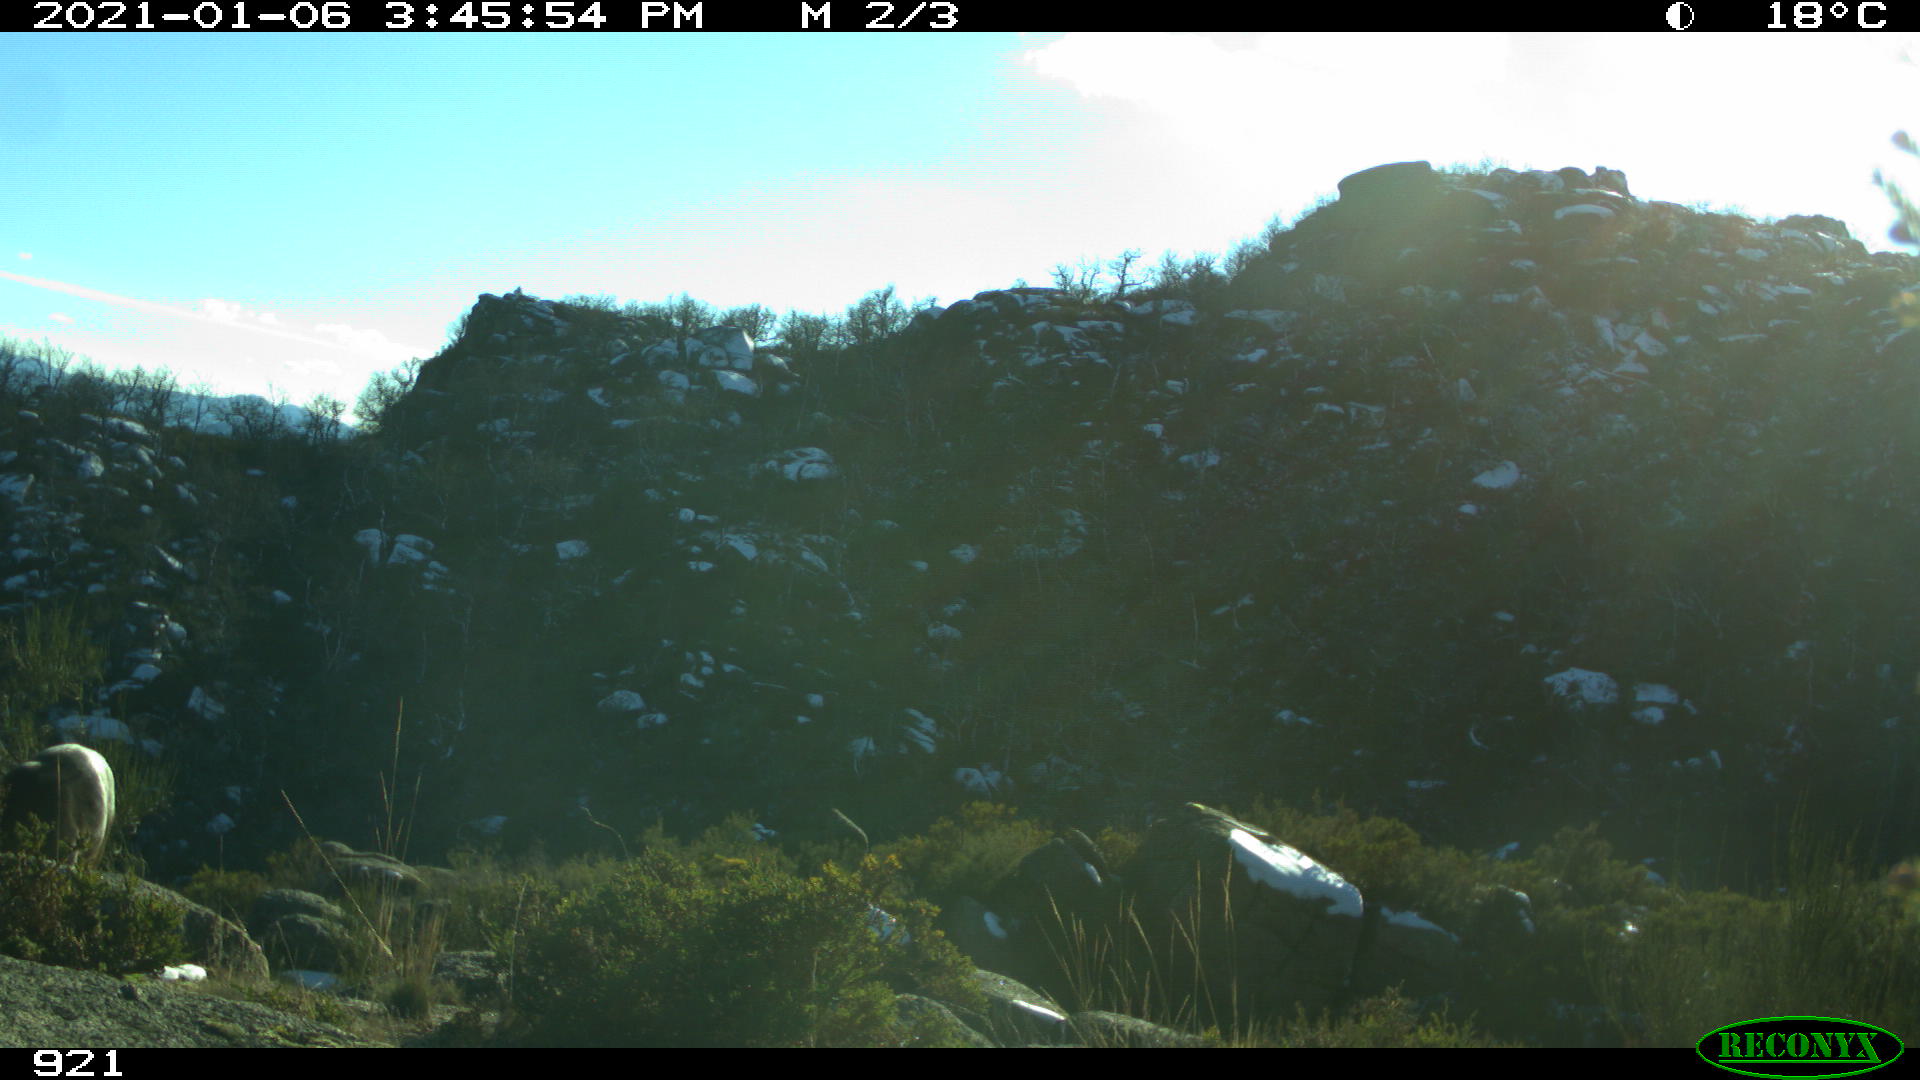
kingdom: Animalia
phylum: Chordata
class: Mammalia
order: Artiodactyla
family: Cervidae
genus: Capreolus
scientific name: Capreolus capreolus
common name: Western roe deer
